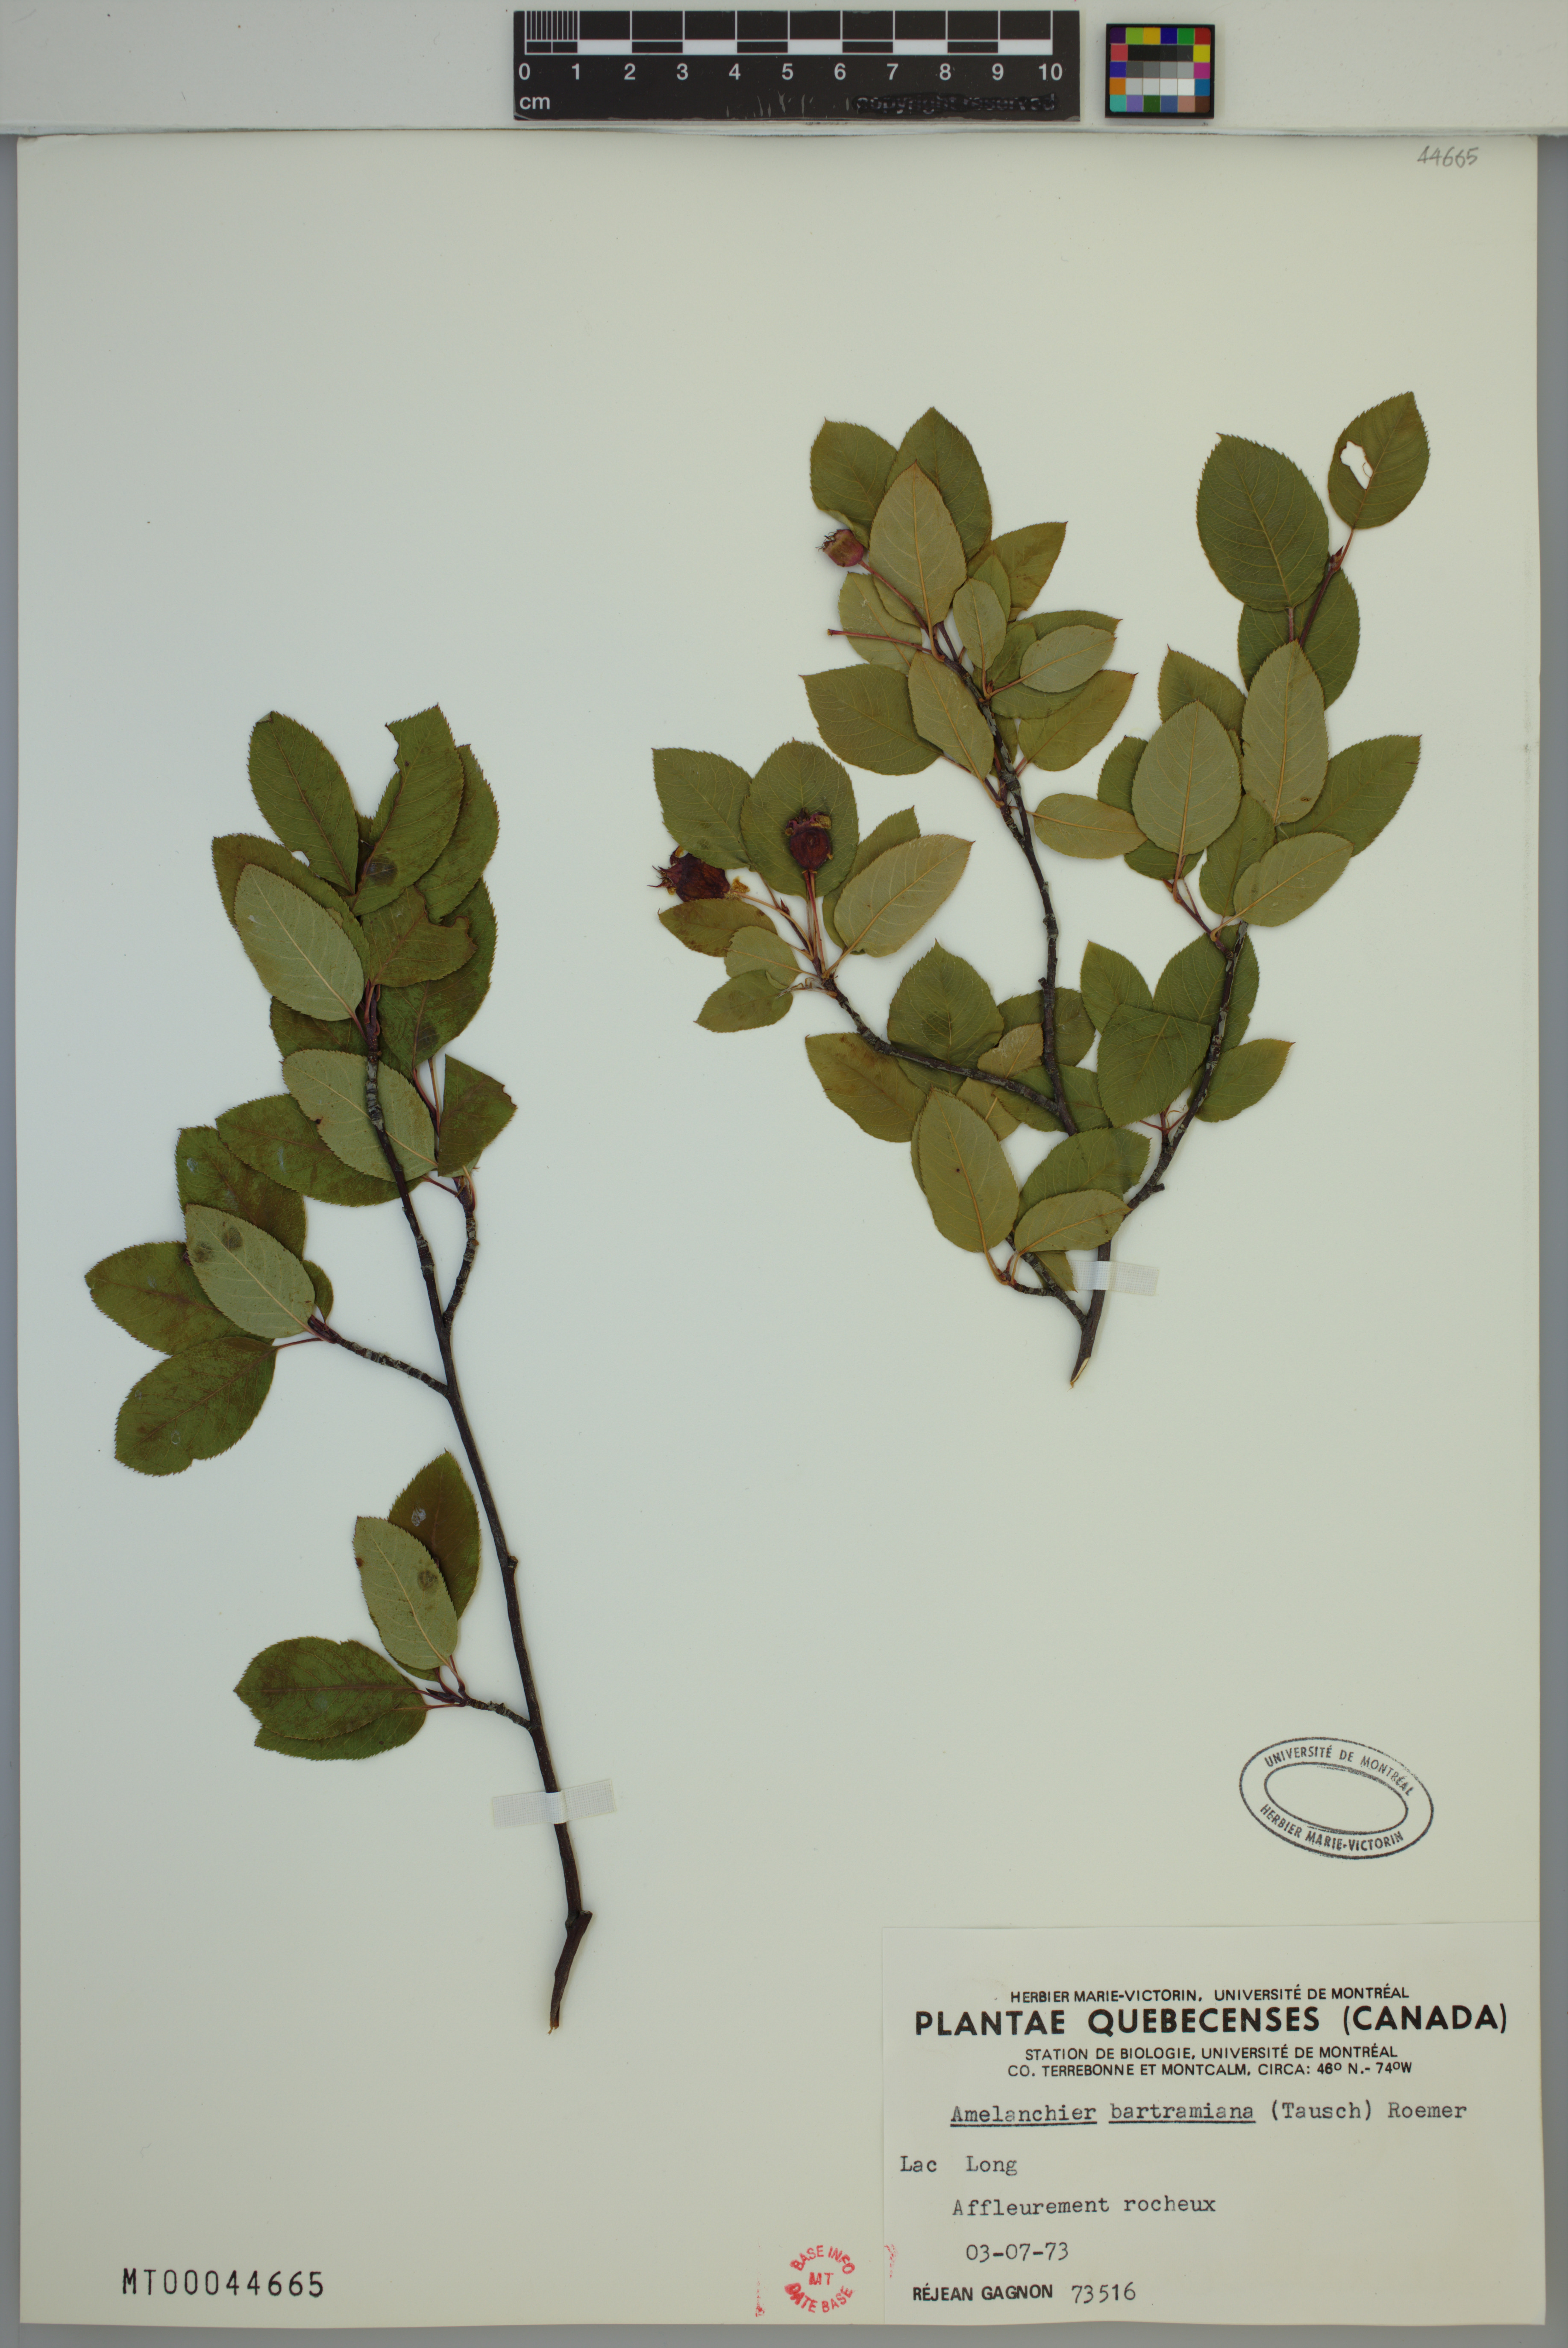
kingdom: Plantae
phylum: Tracheophyta
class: Magnoliopsida
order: Rosales
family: Rosaceae
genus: Amelanchier
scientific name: Amelanchier bartramiana
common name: Mountain serviceberry
